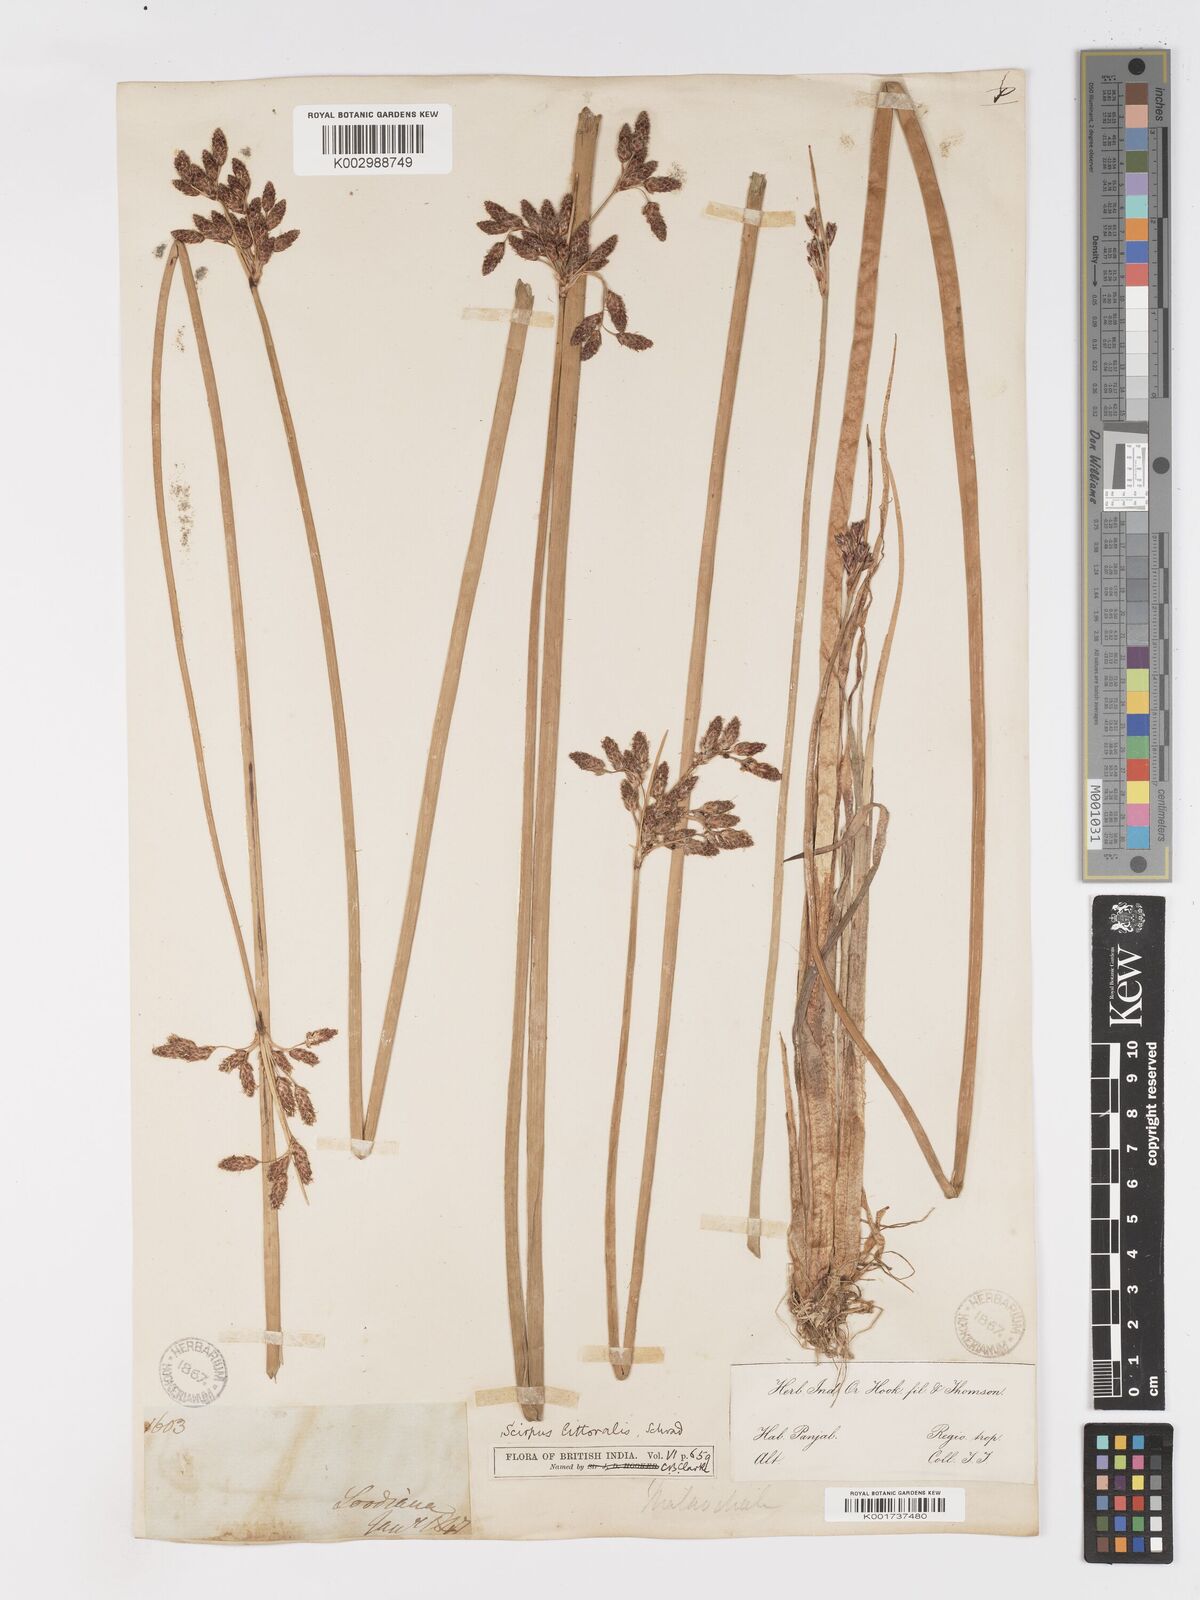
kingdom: Plantae
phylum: Tracheophyta
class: Liliopsida
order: Poales
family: Cyperaceae
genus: Schoenoplectus
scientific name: Schoenoplectus litoralis
